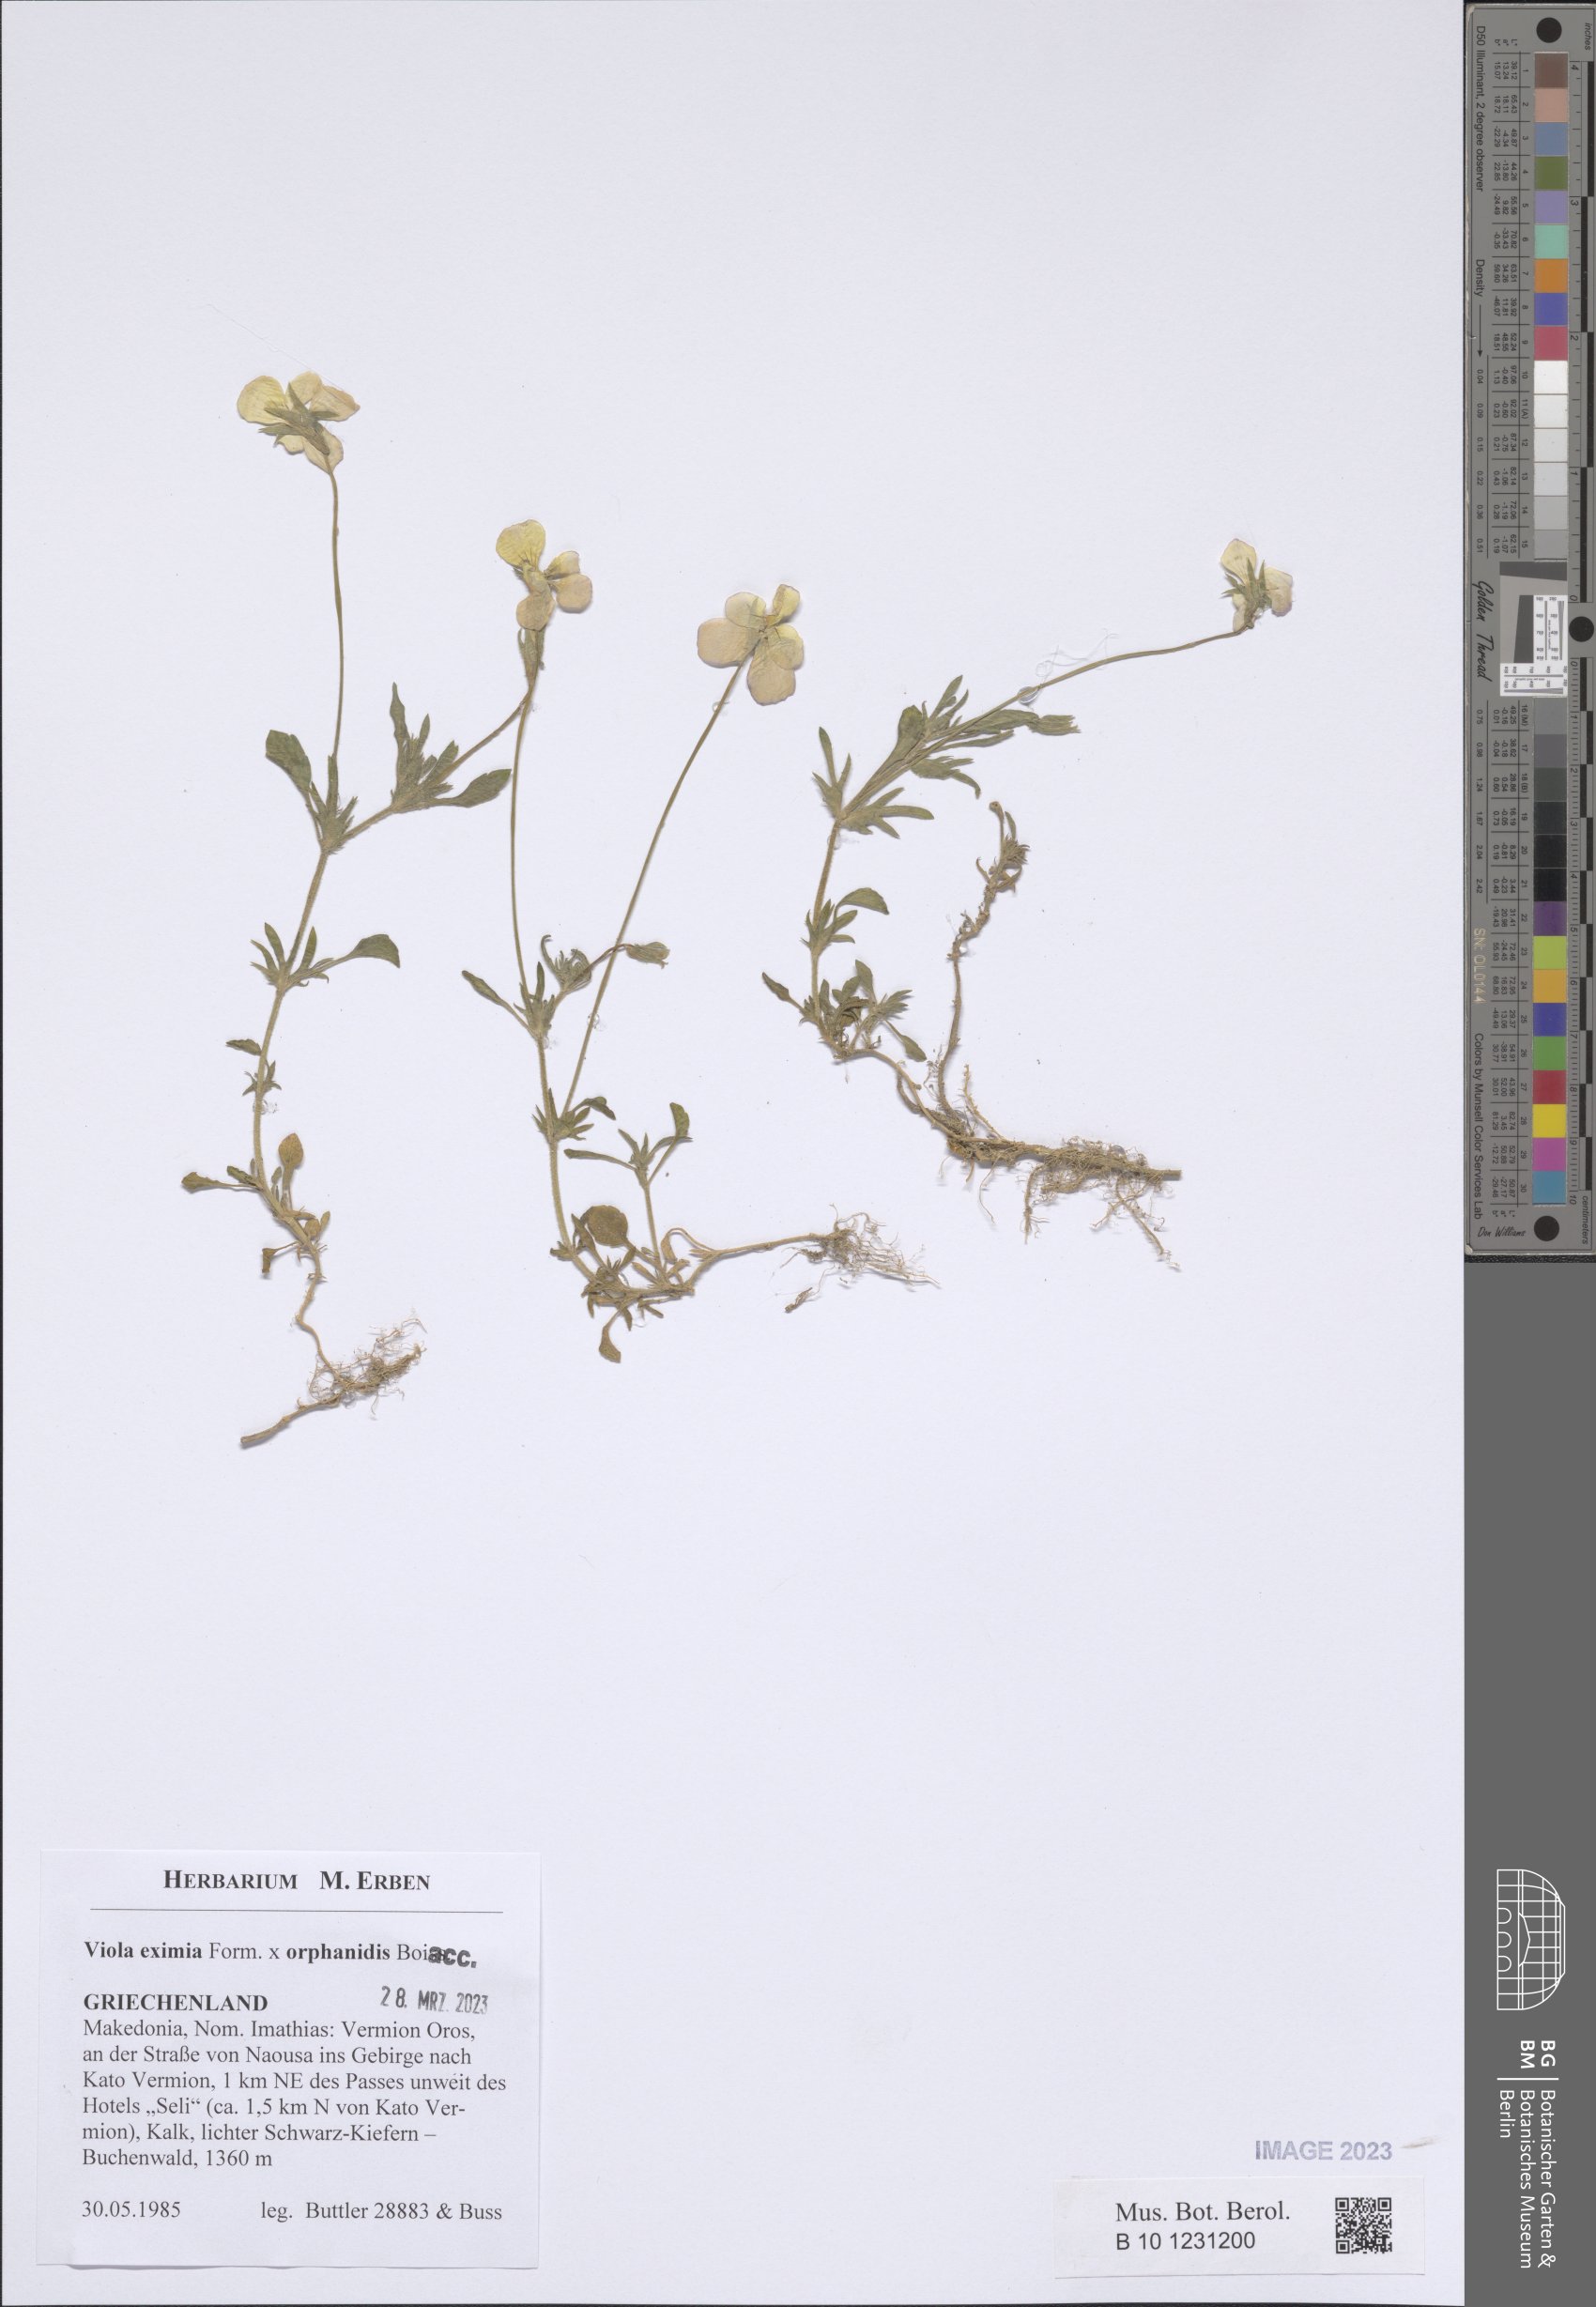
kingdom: Plantae
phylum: Tracheophyta
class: Magnoliopsida
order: Malpighiales
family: Violaceae
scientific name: Violaceae
